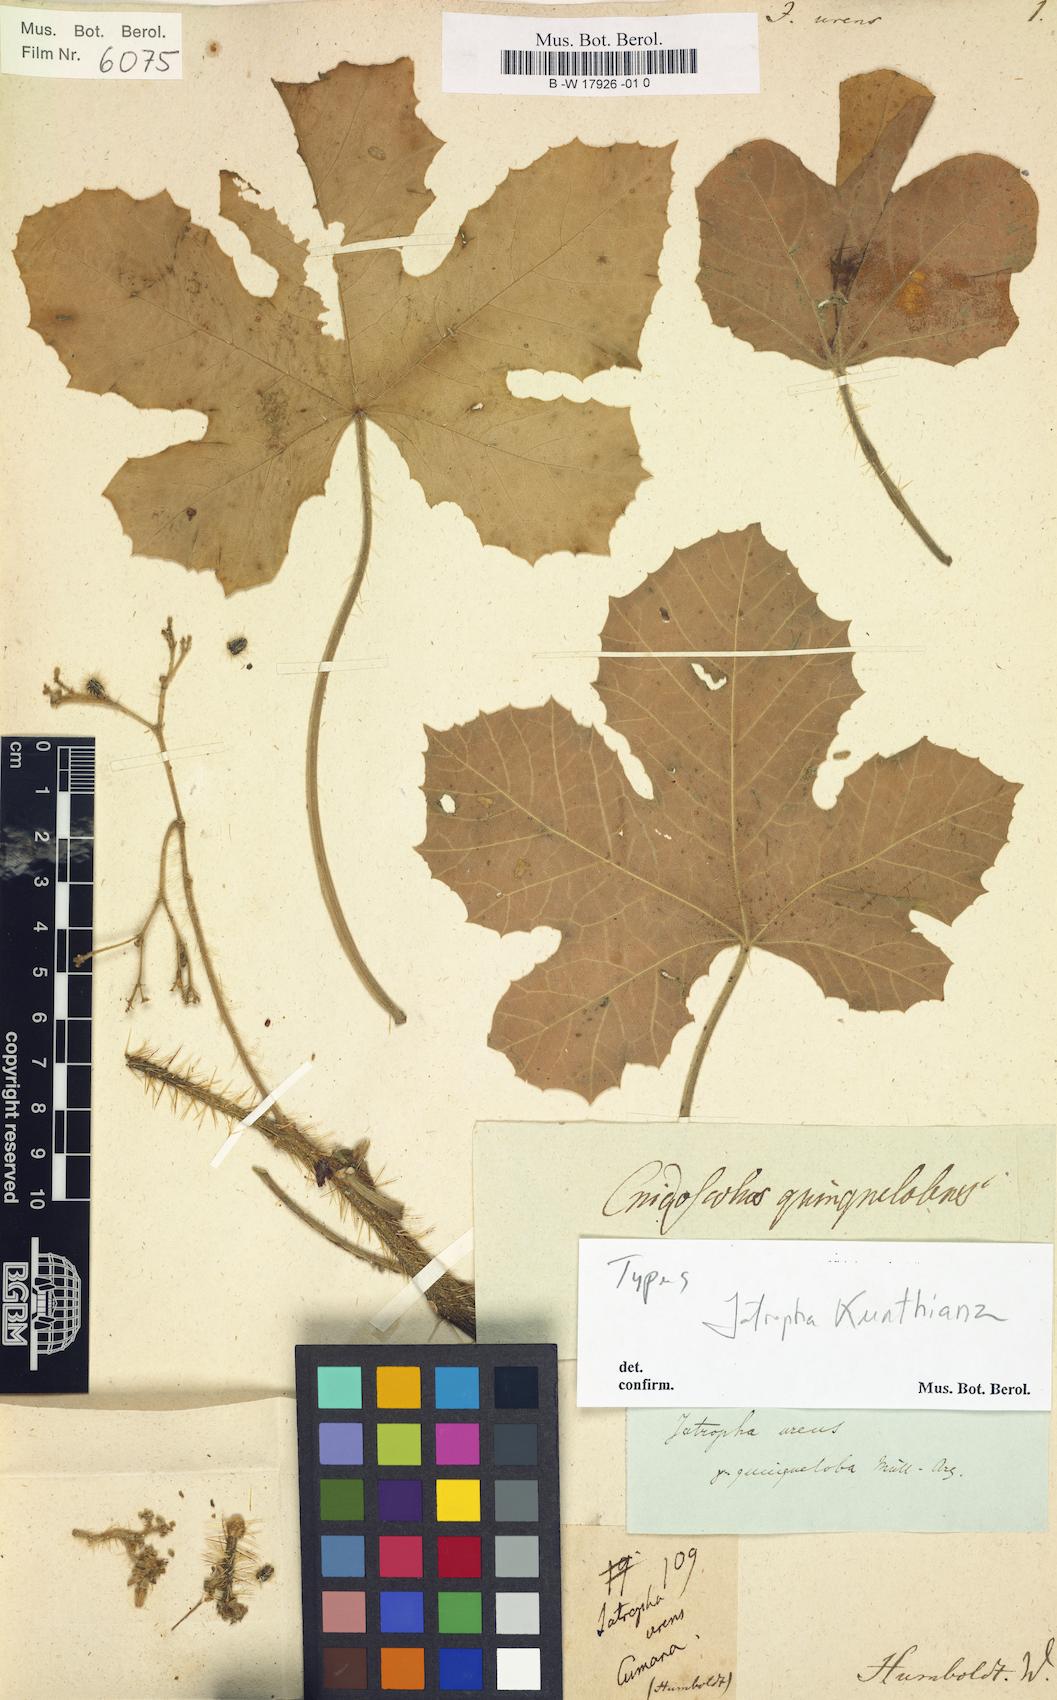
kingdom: Plantae
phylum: Tracheophyta
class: Magnoliopsida
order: Malpighiales
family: Euphorbiaceae
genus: Jatropha
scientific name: Jatropha urens
